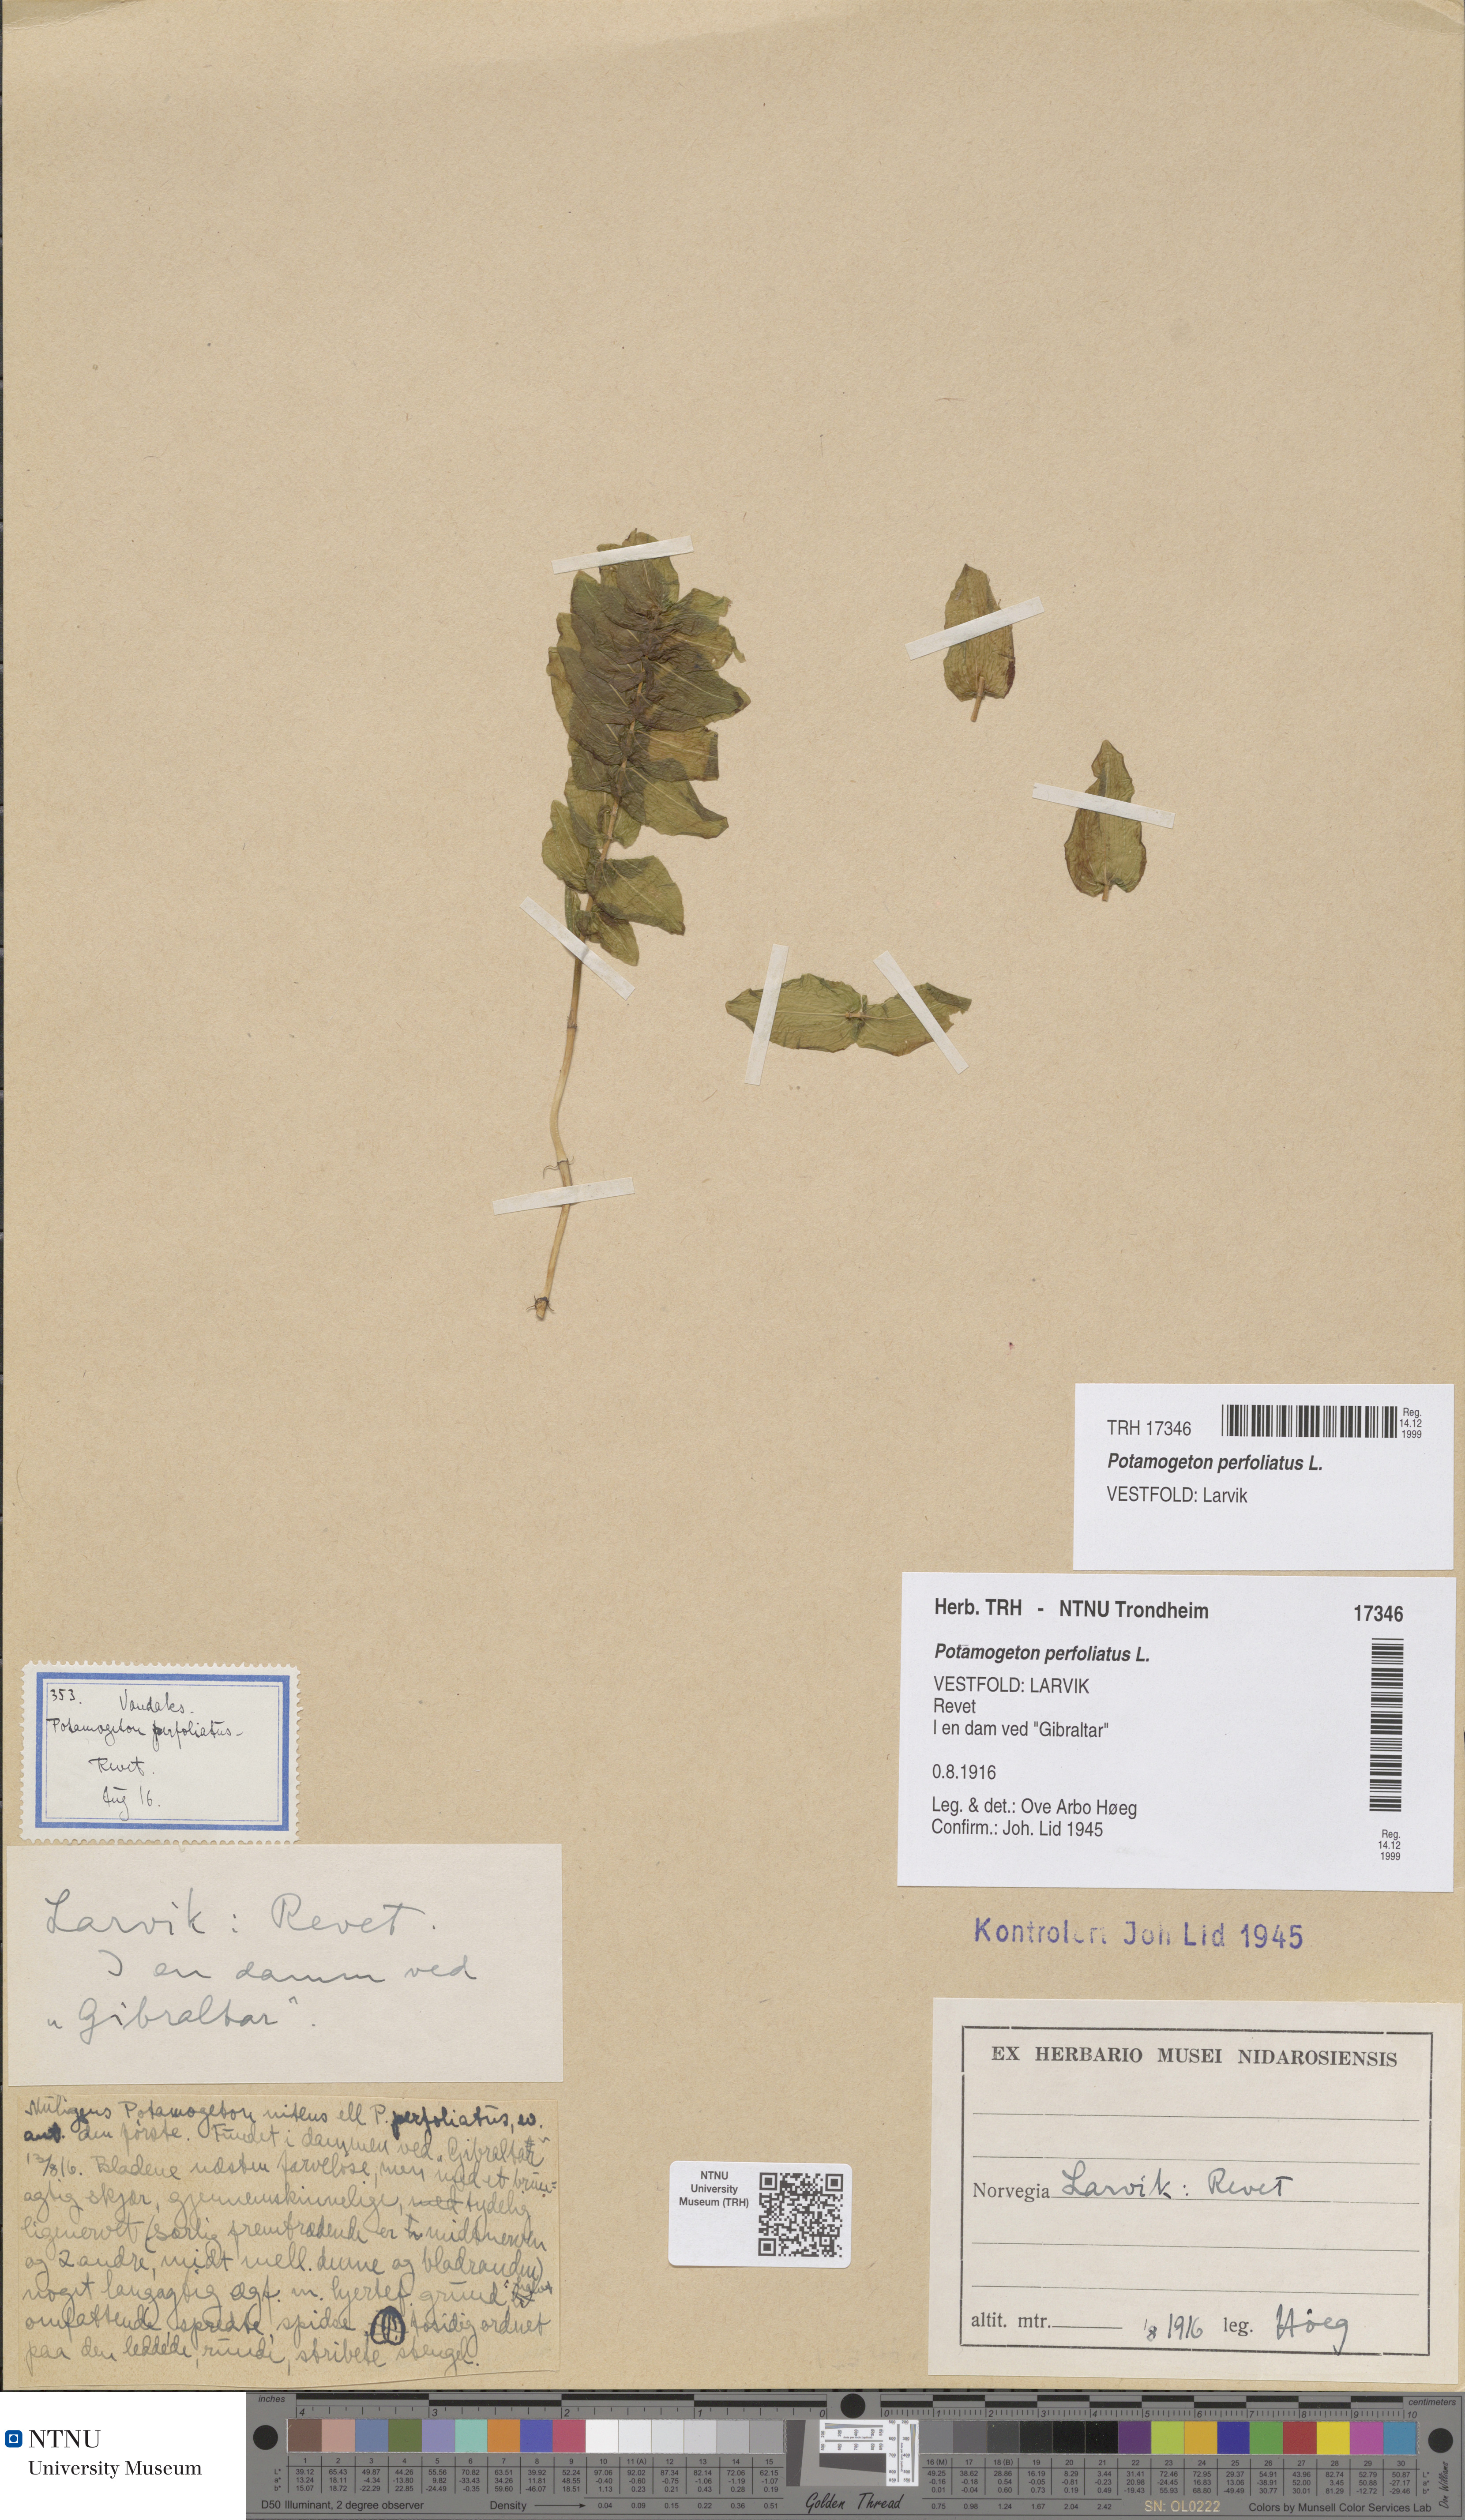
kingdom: Plantae
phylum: Tracheophyta
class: Liliopsida
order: Alismatales
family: Potamogetonaceae
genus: Potamogeton
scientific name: Potamogeton perfoliatus
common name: Perfoliate pondweed
